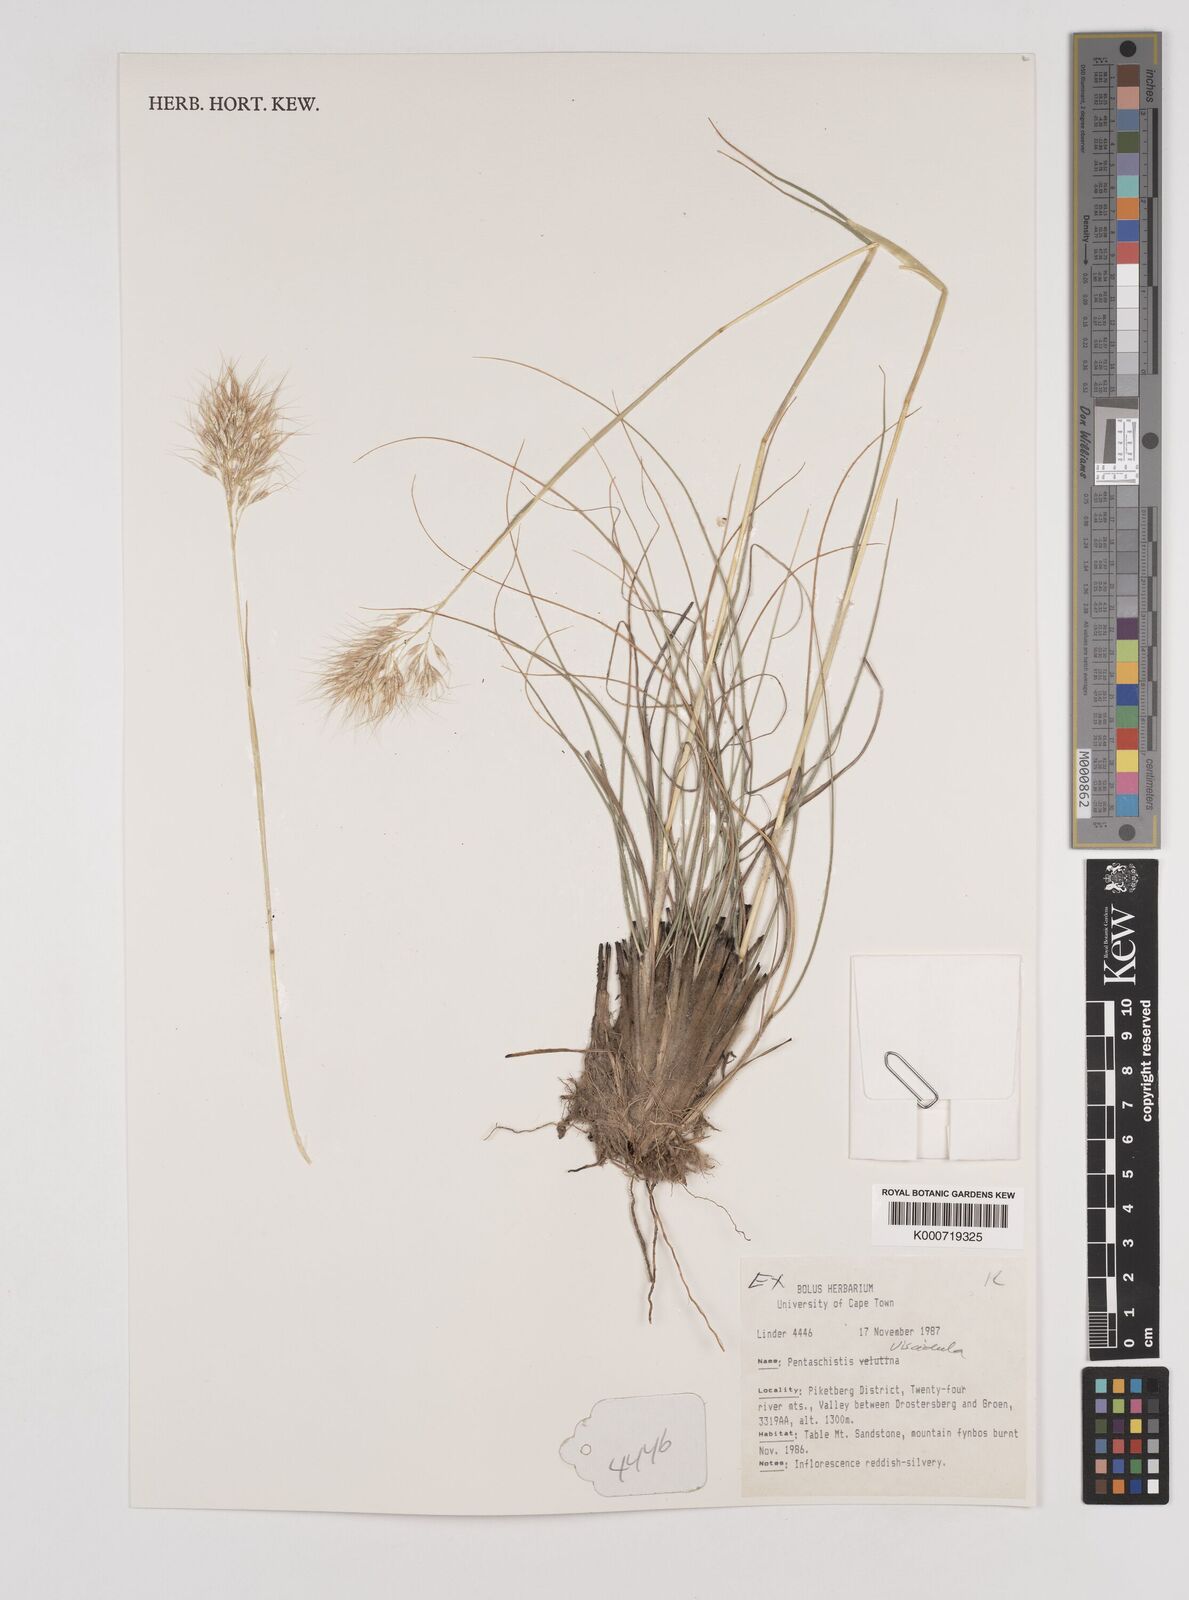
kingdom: Plantae
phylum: Tracheophyta
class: Liliopsida
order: Poales
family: Poaceae
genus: Pentameris
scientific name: Pentameris viscidula
